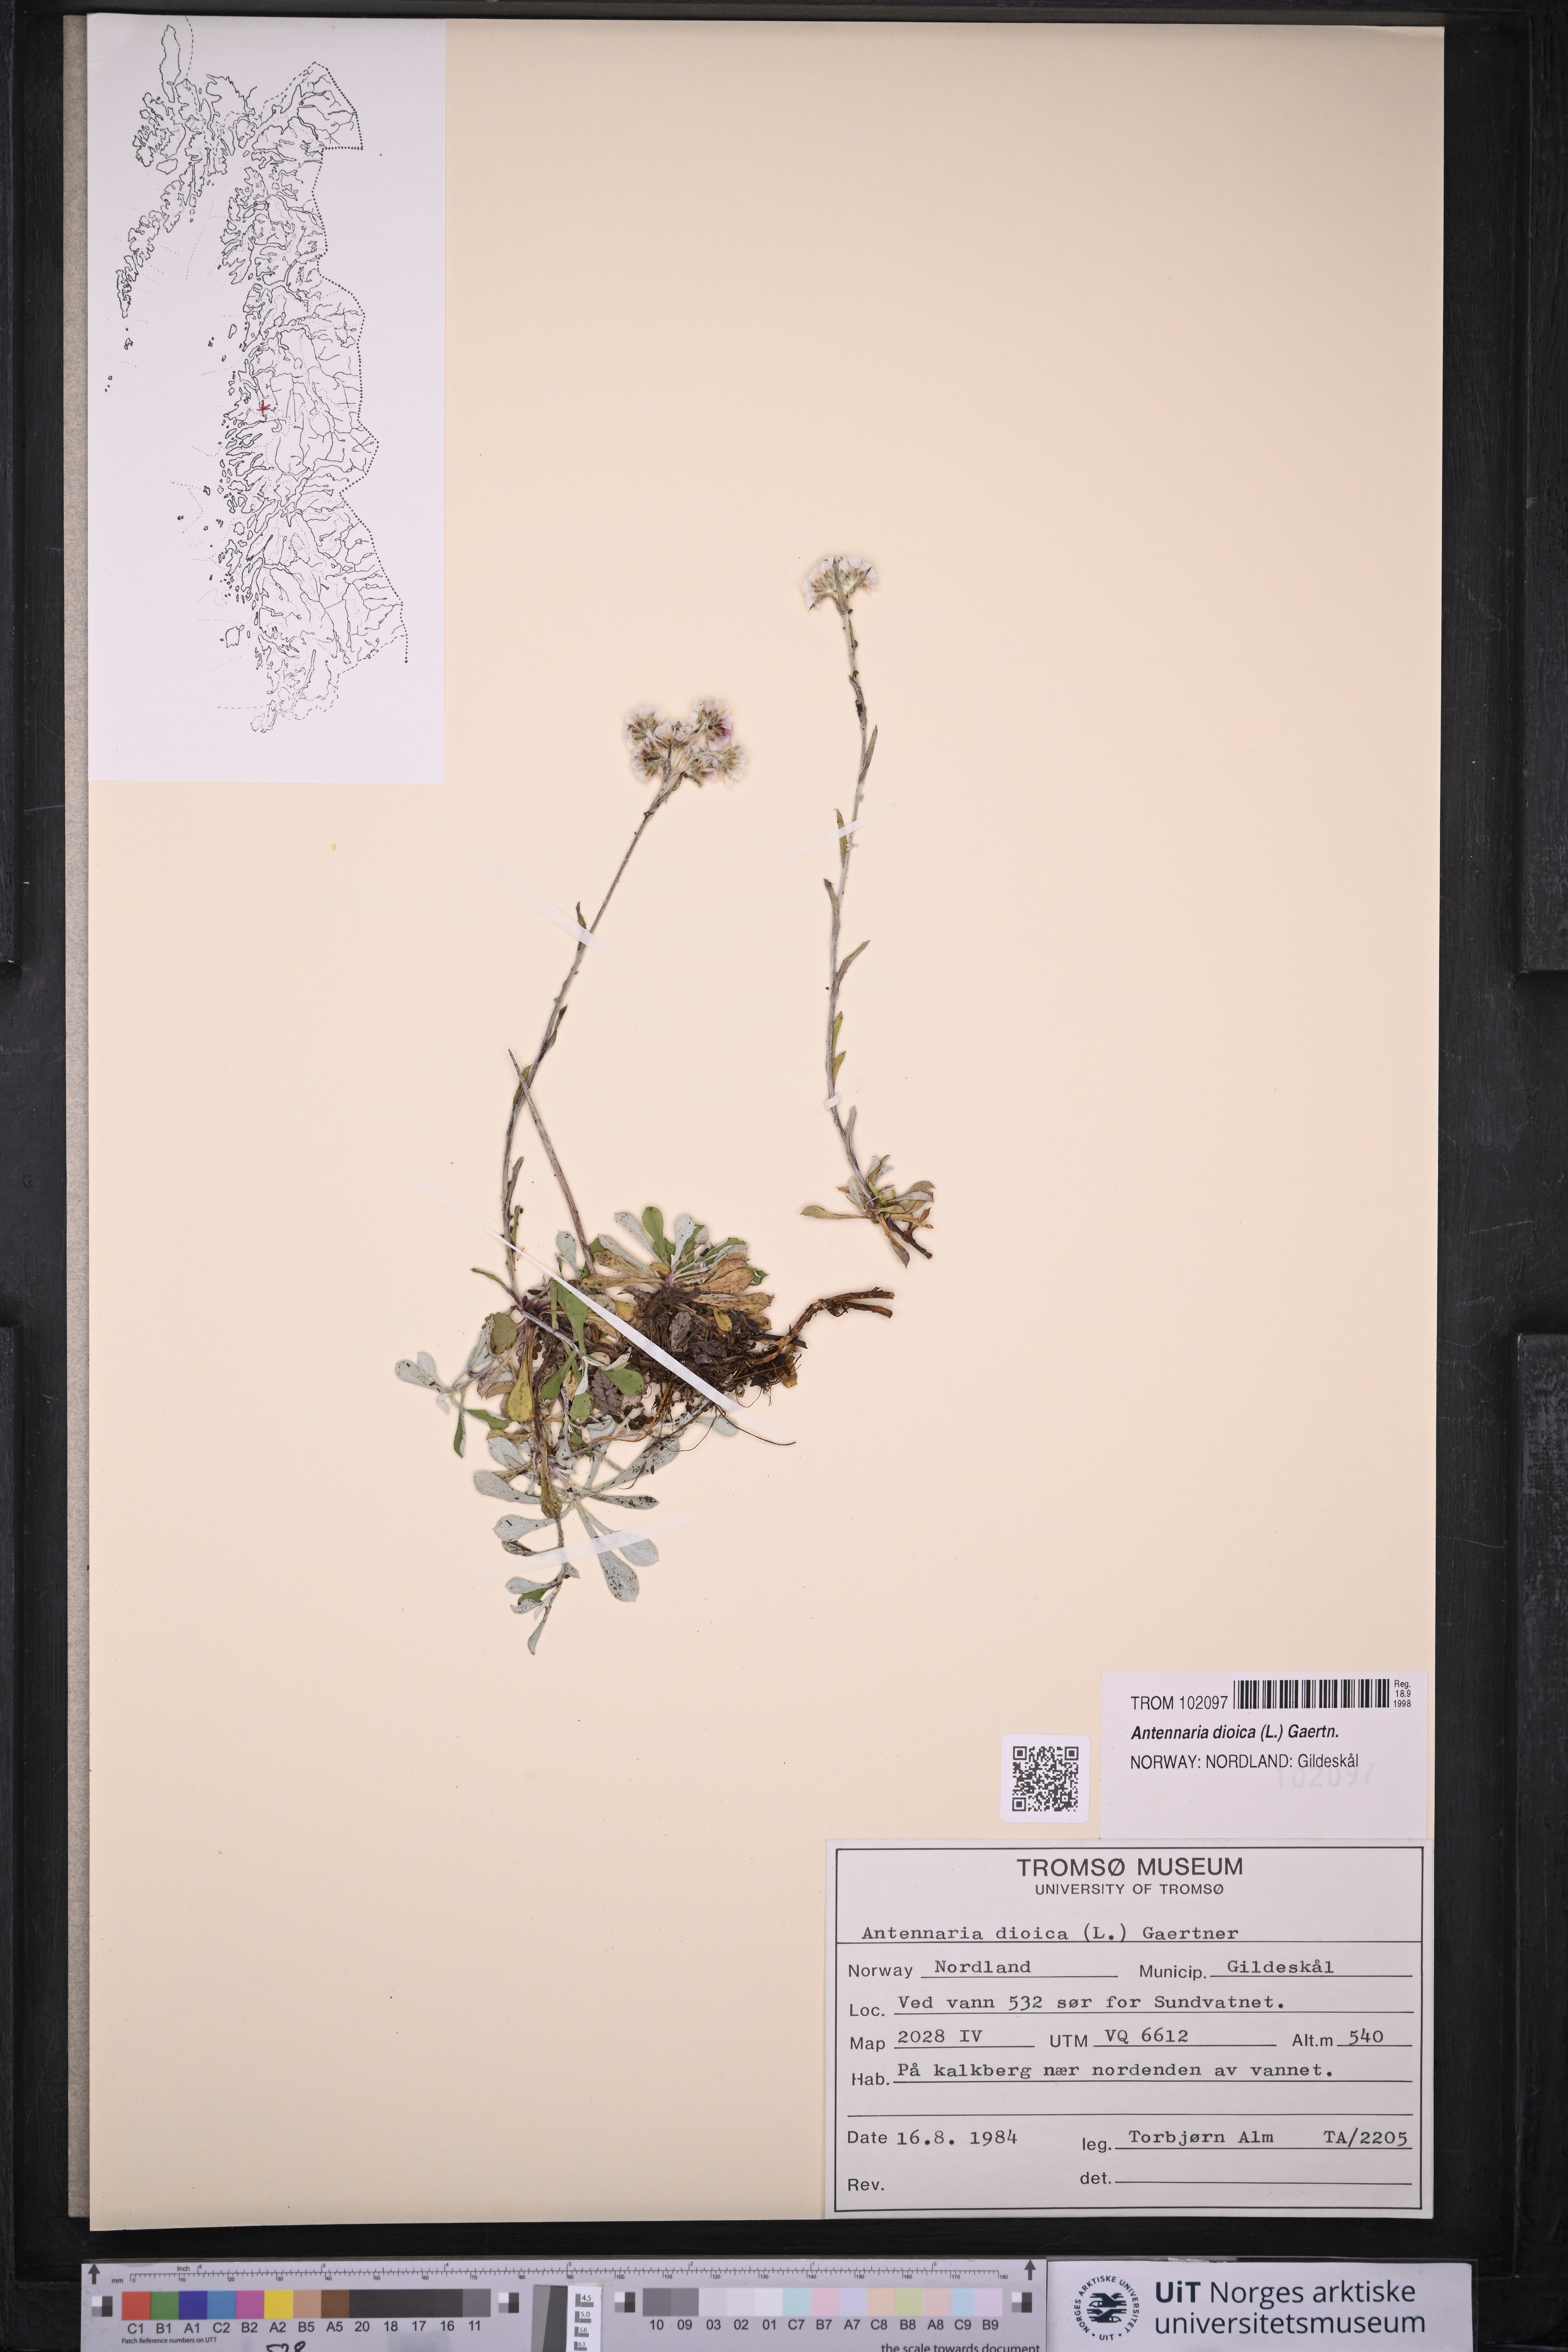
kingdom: Plantae
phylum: Tracheophyta
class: Magnoliopsida
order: Asterales
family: Asteraceae
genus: Antennaria
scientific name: Antennaria dioica
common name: Mountain everlasting
